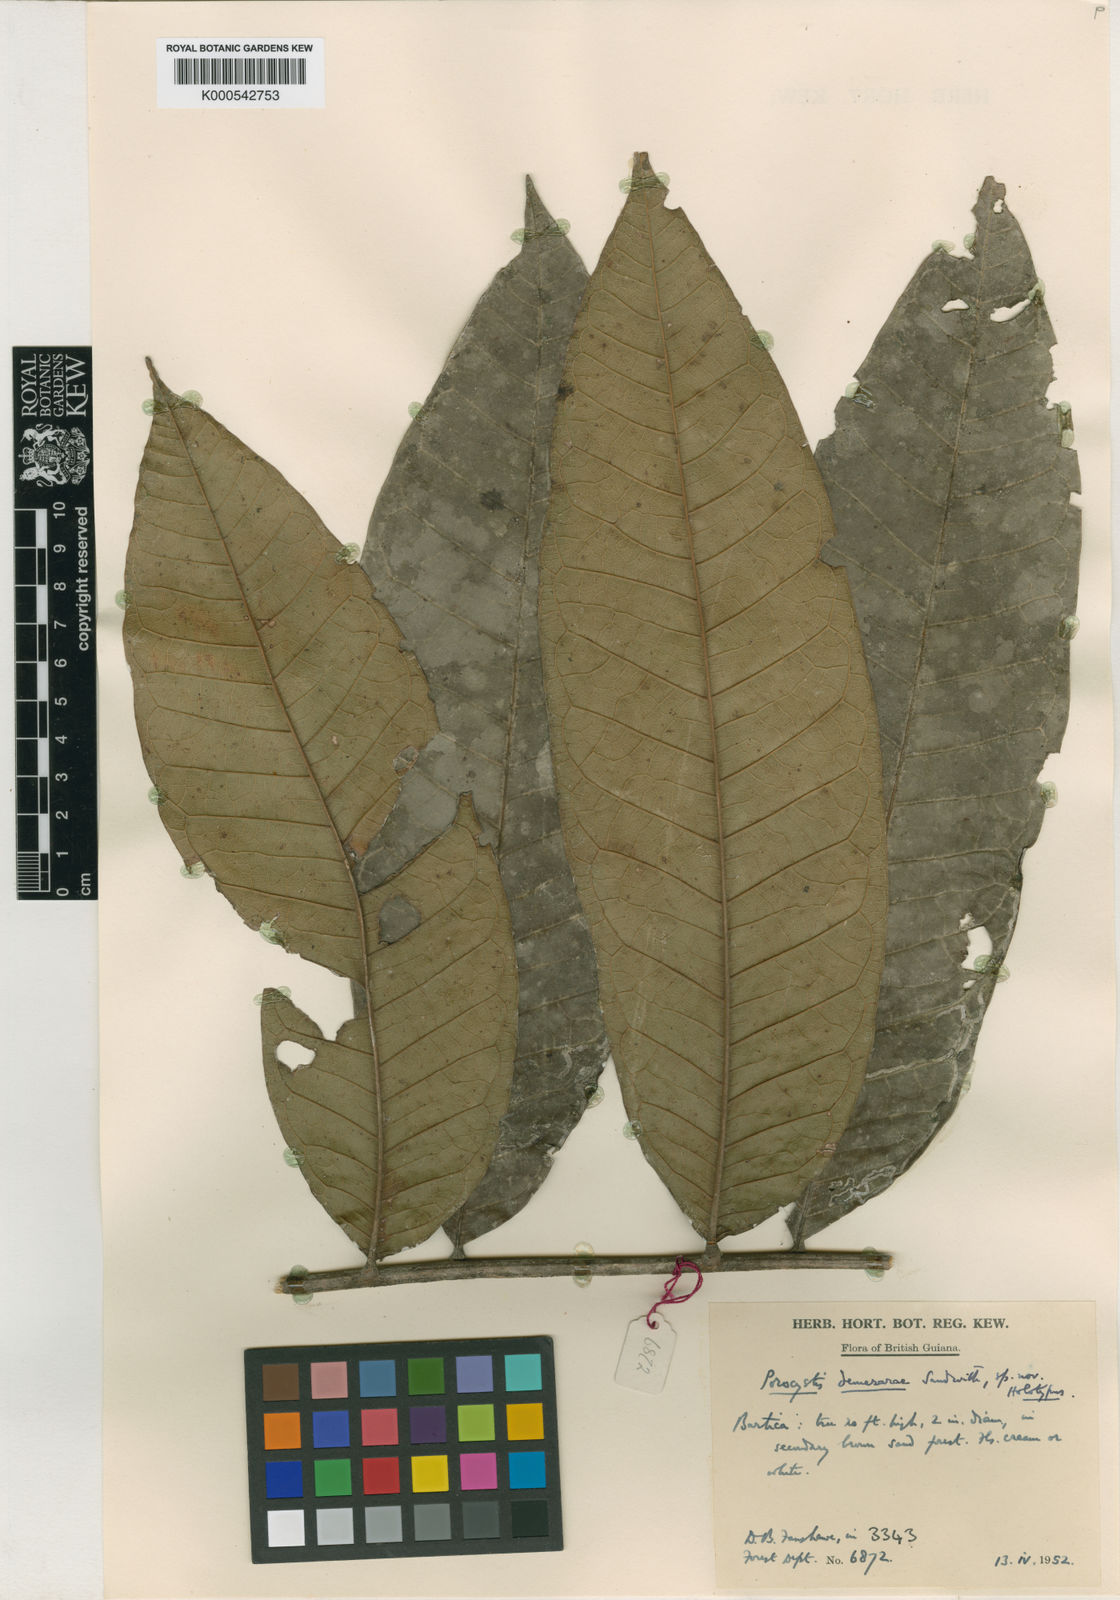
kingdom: Plantae
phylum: Tracheophyta
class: Magnoliopsida
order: Sapindales
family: Sapindaceae
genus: Porocystis
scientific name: Porocystis toulicioides
